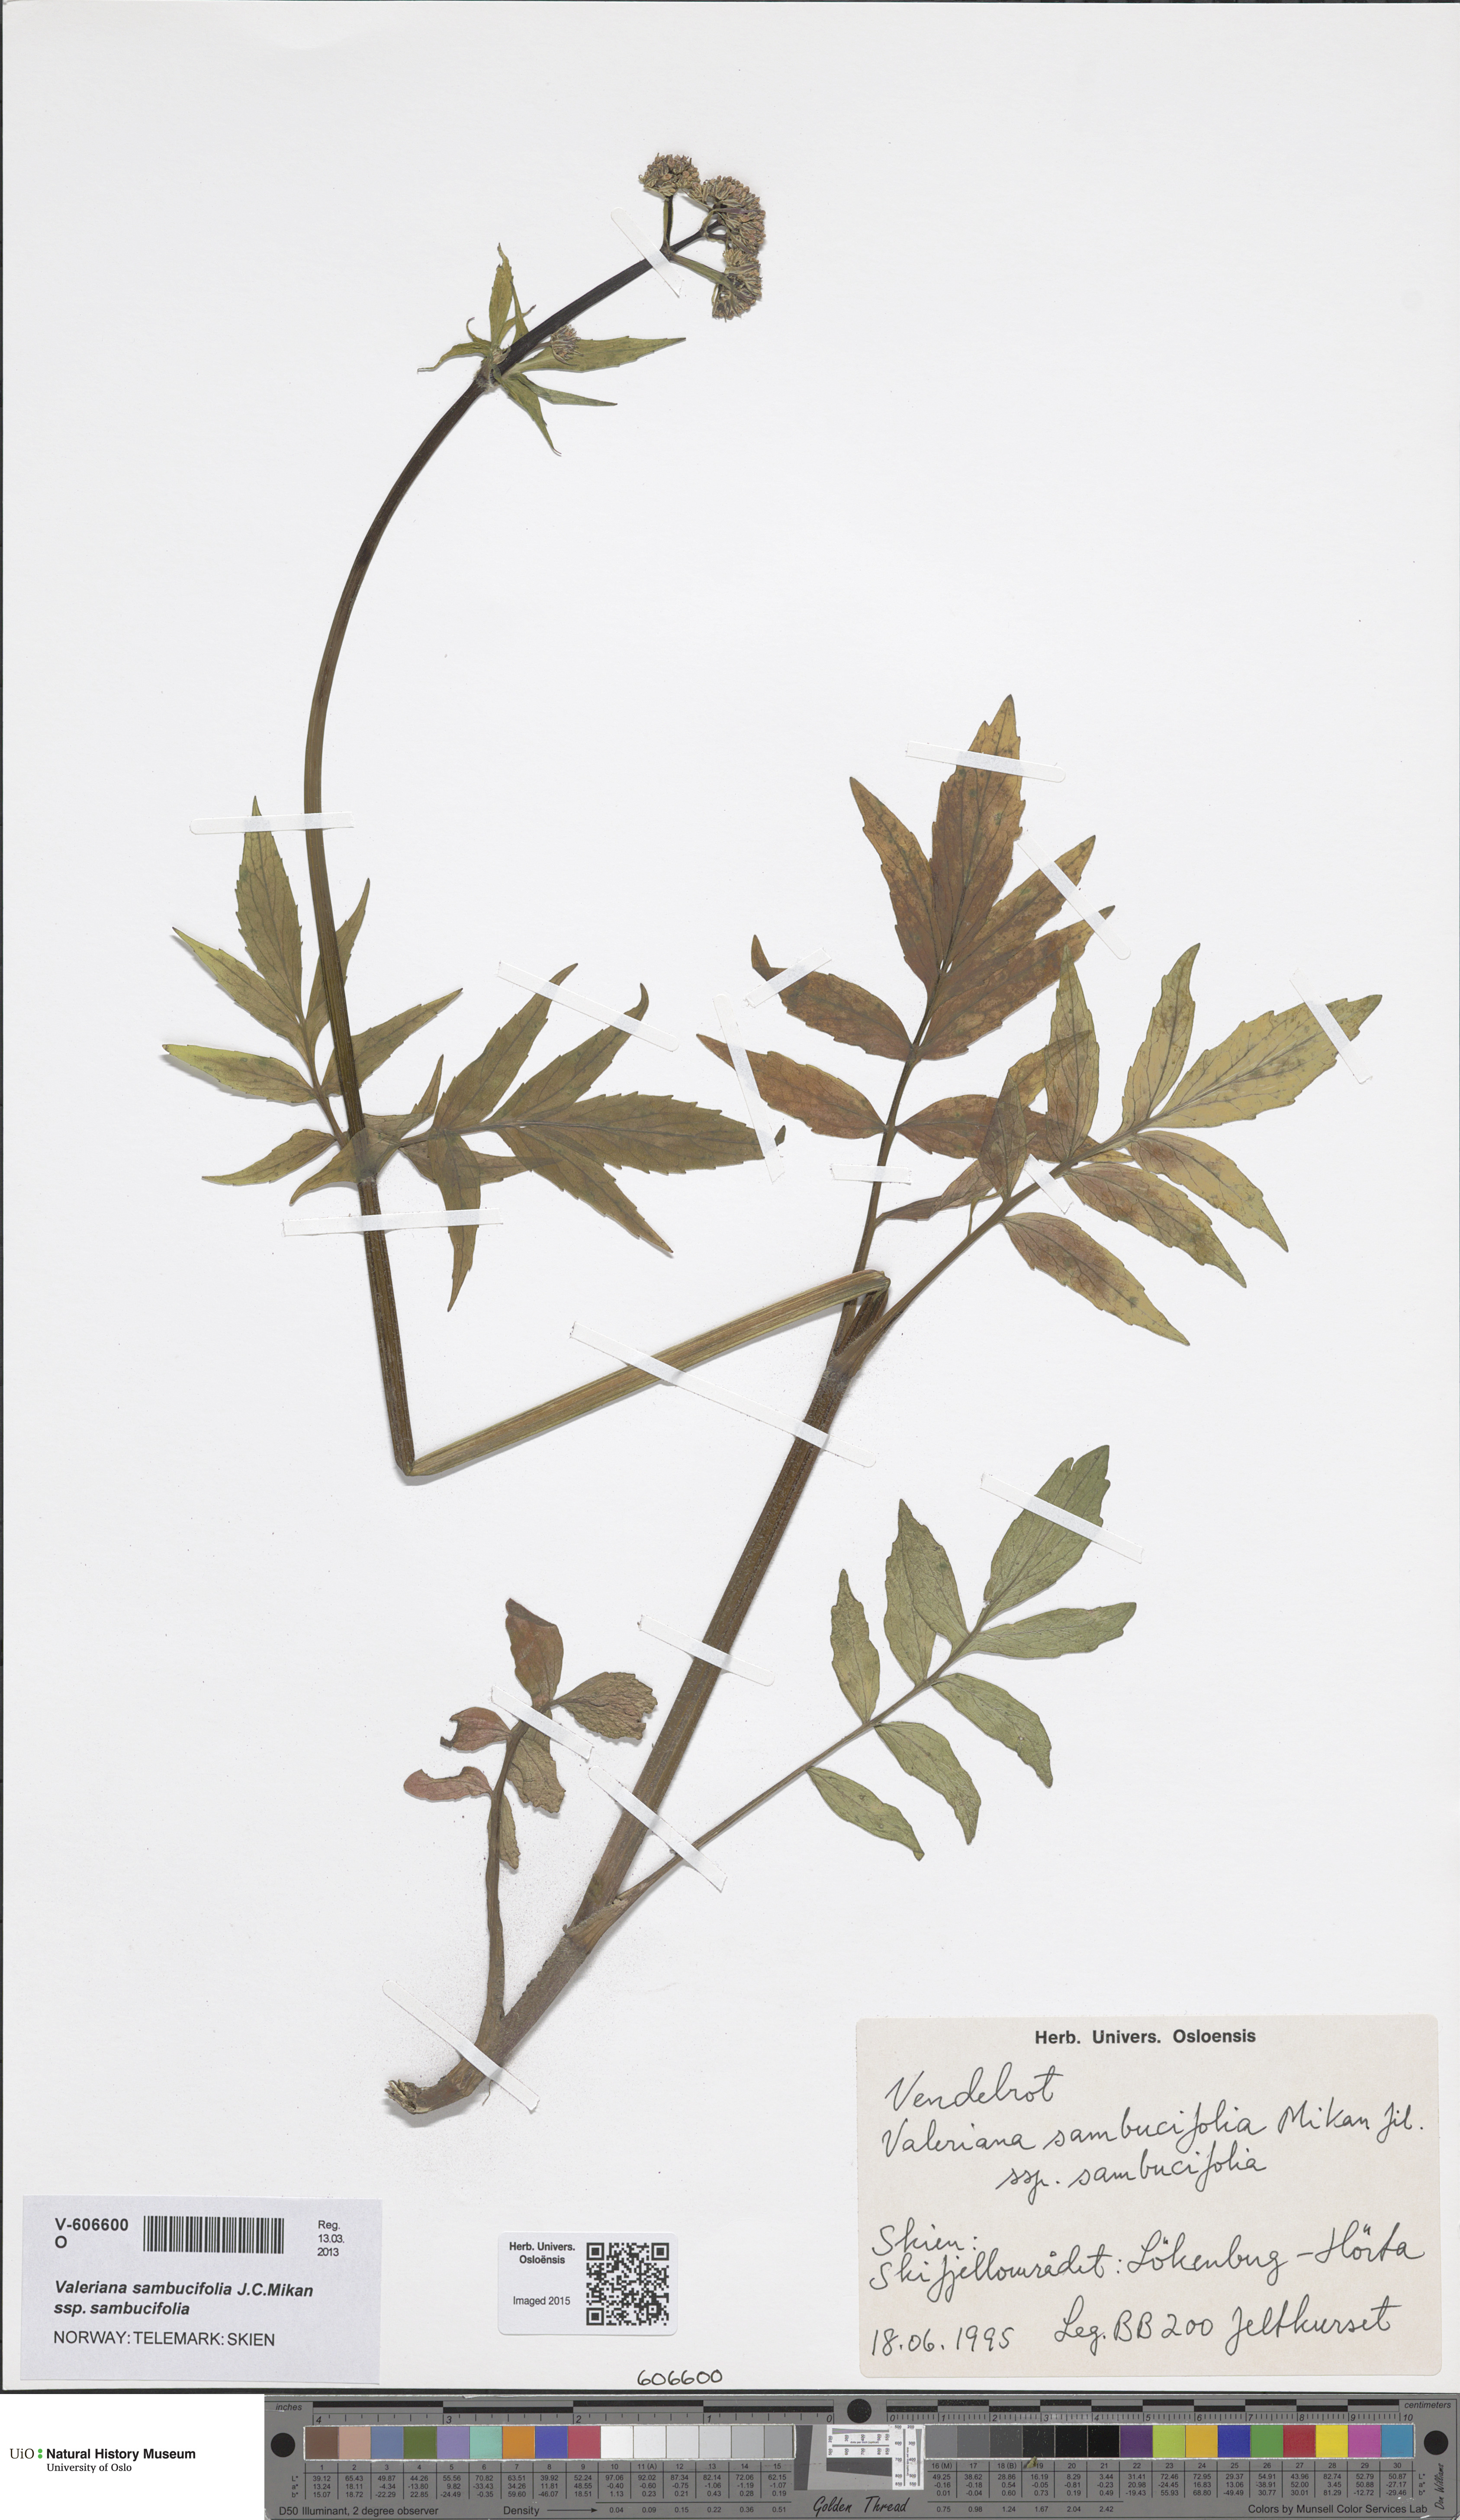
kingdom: Plantae
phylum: Tracheophyta
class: Magnoliopsida
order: Dipsacales
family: Caprifoliaceae
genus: Valeriana
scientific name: Valeriana sambucifolia
